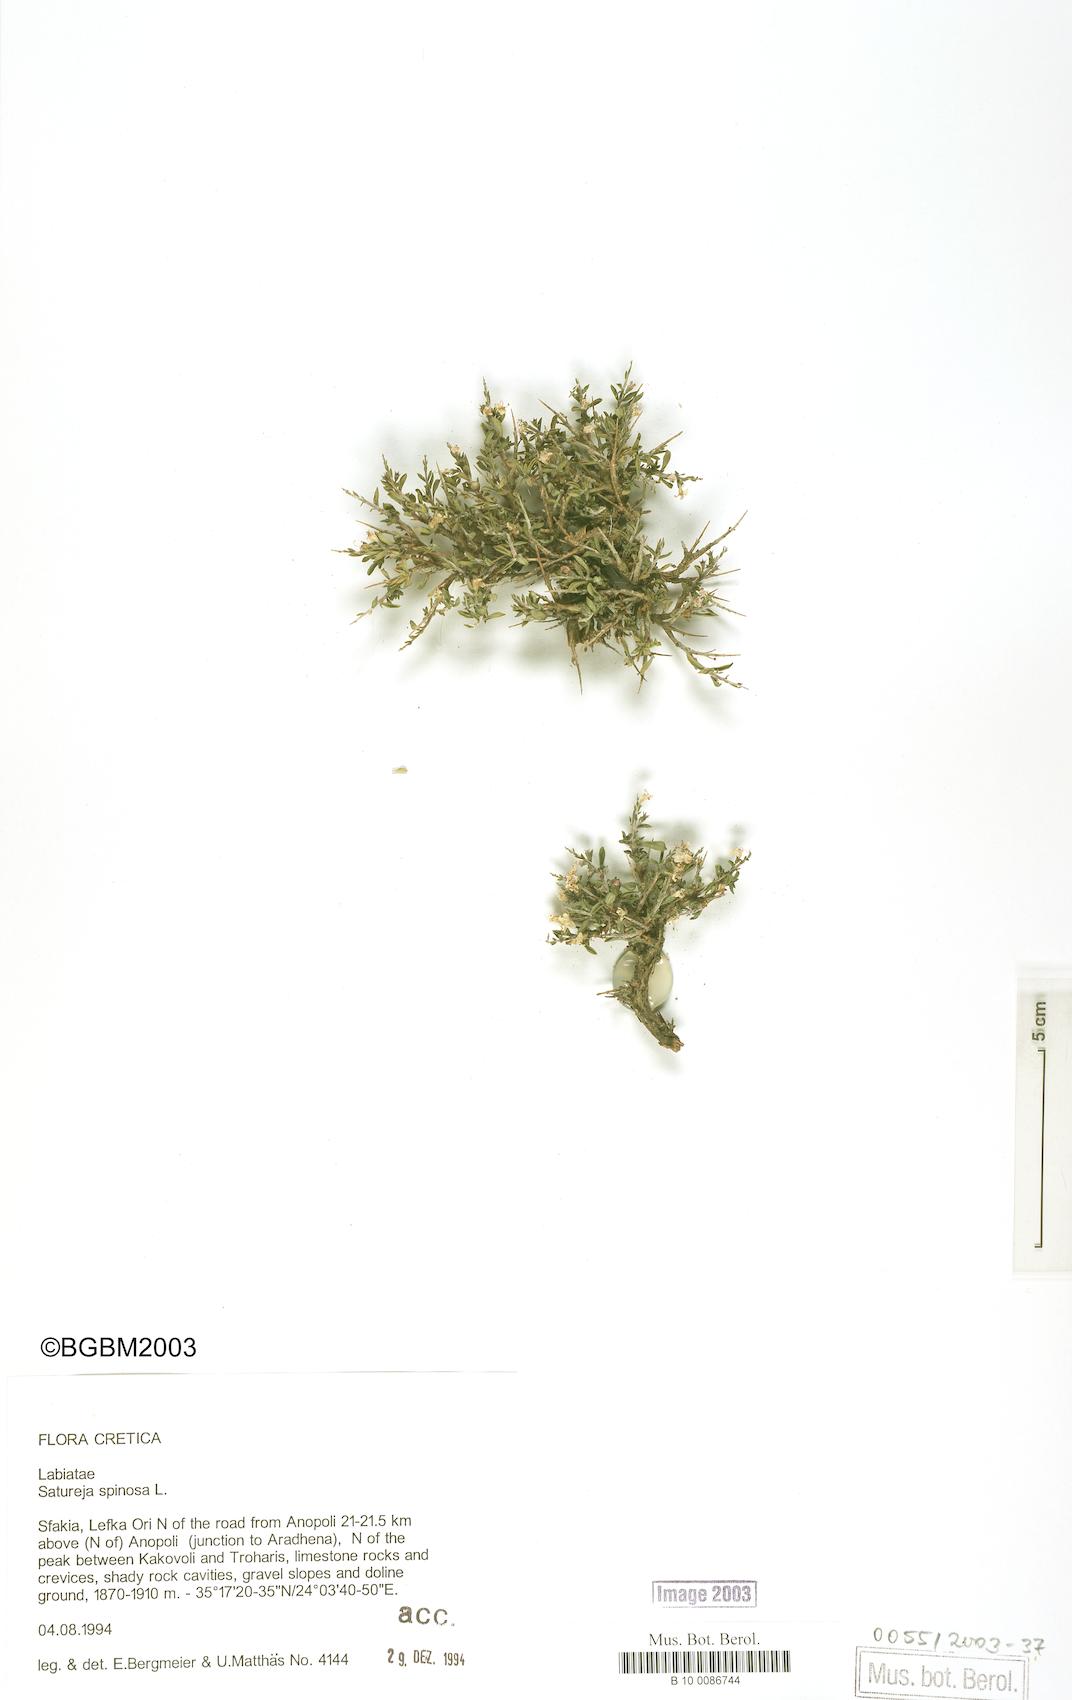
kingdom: Plantae
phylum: Tracheophyta
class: Magnoliopsida
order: Lamiales
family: Lamiaceae
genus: Satureja
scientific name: Satureja spinosa
